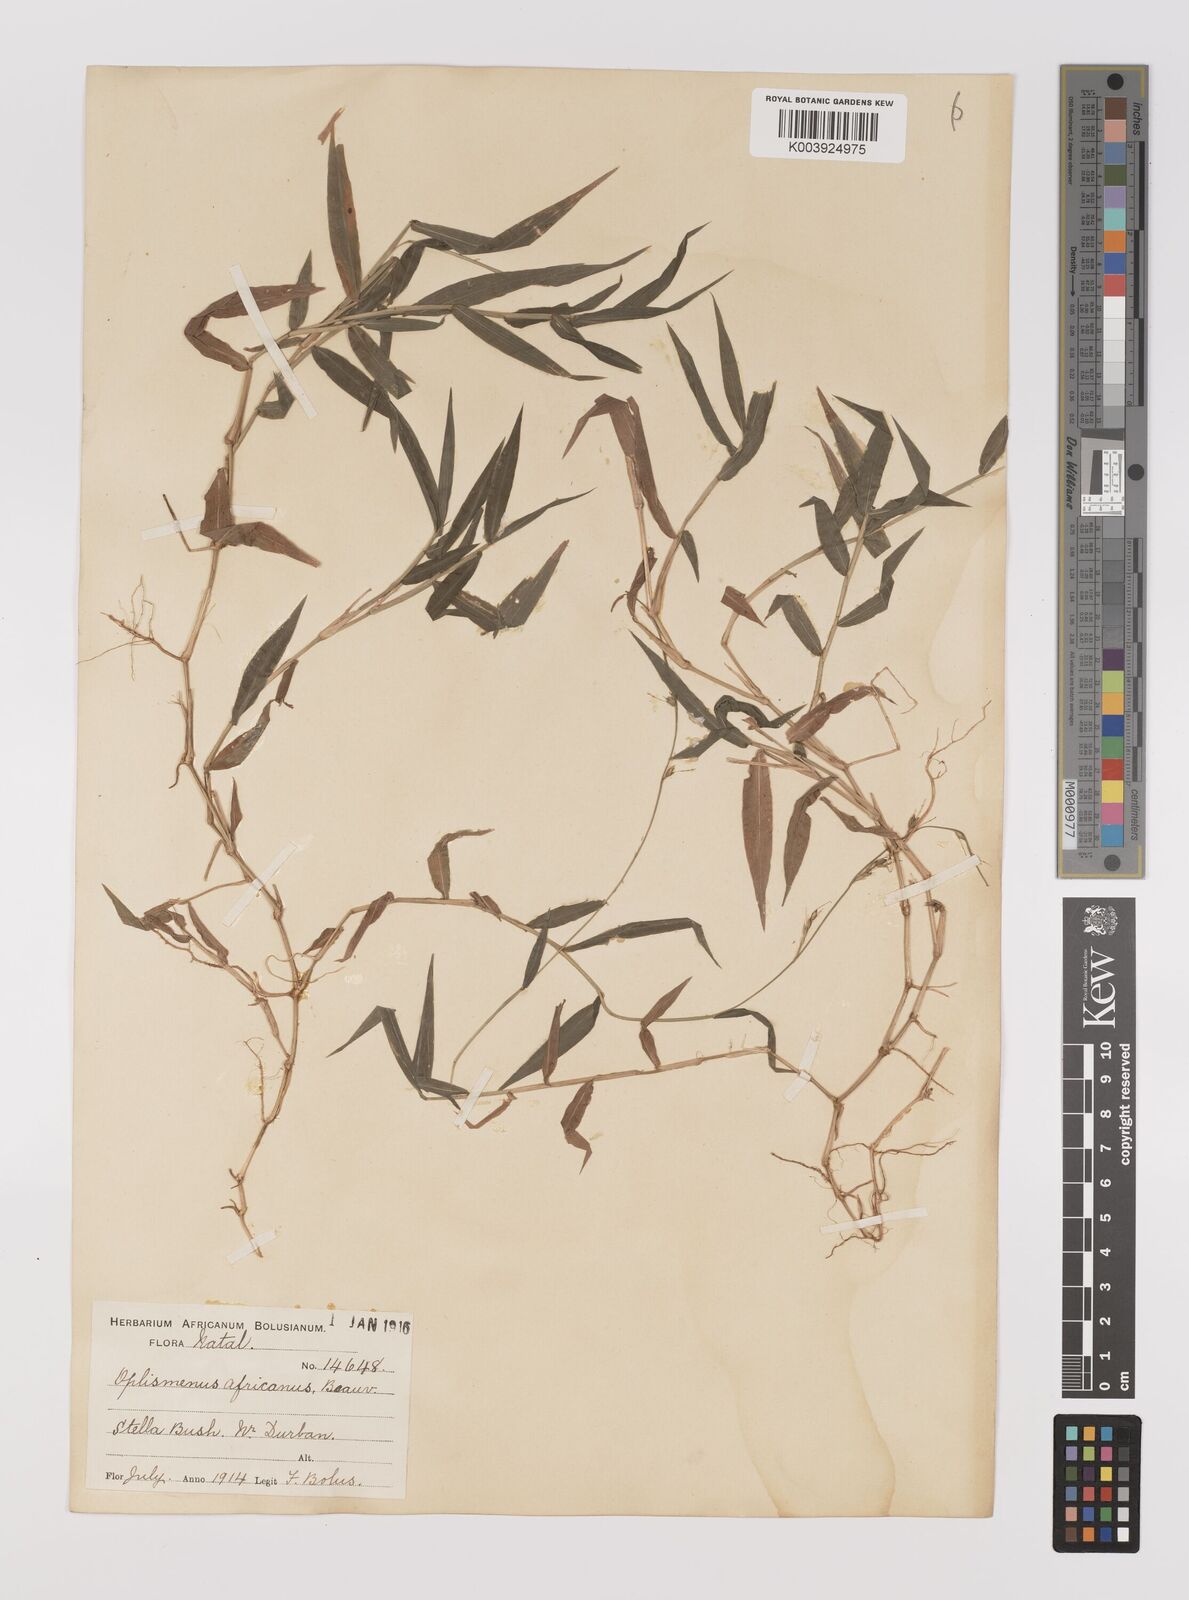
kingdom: Plantae
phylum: Tracheophyta
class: Liliopsida
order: Poales
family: Poaceae
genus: Oplismenus
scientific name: Oplismenus hirtellus
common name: Basketgrass
